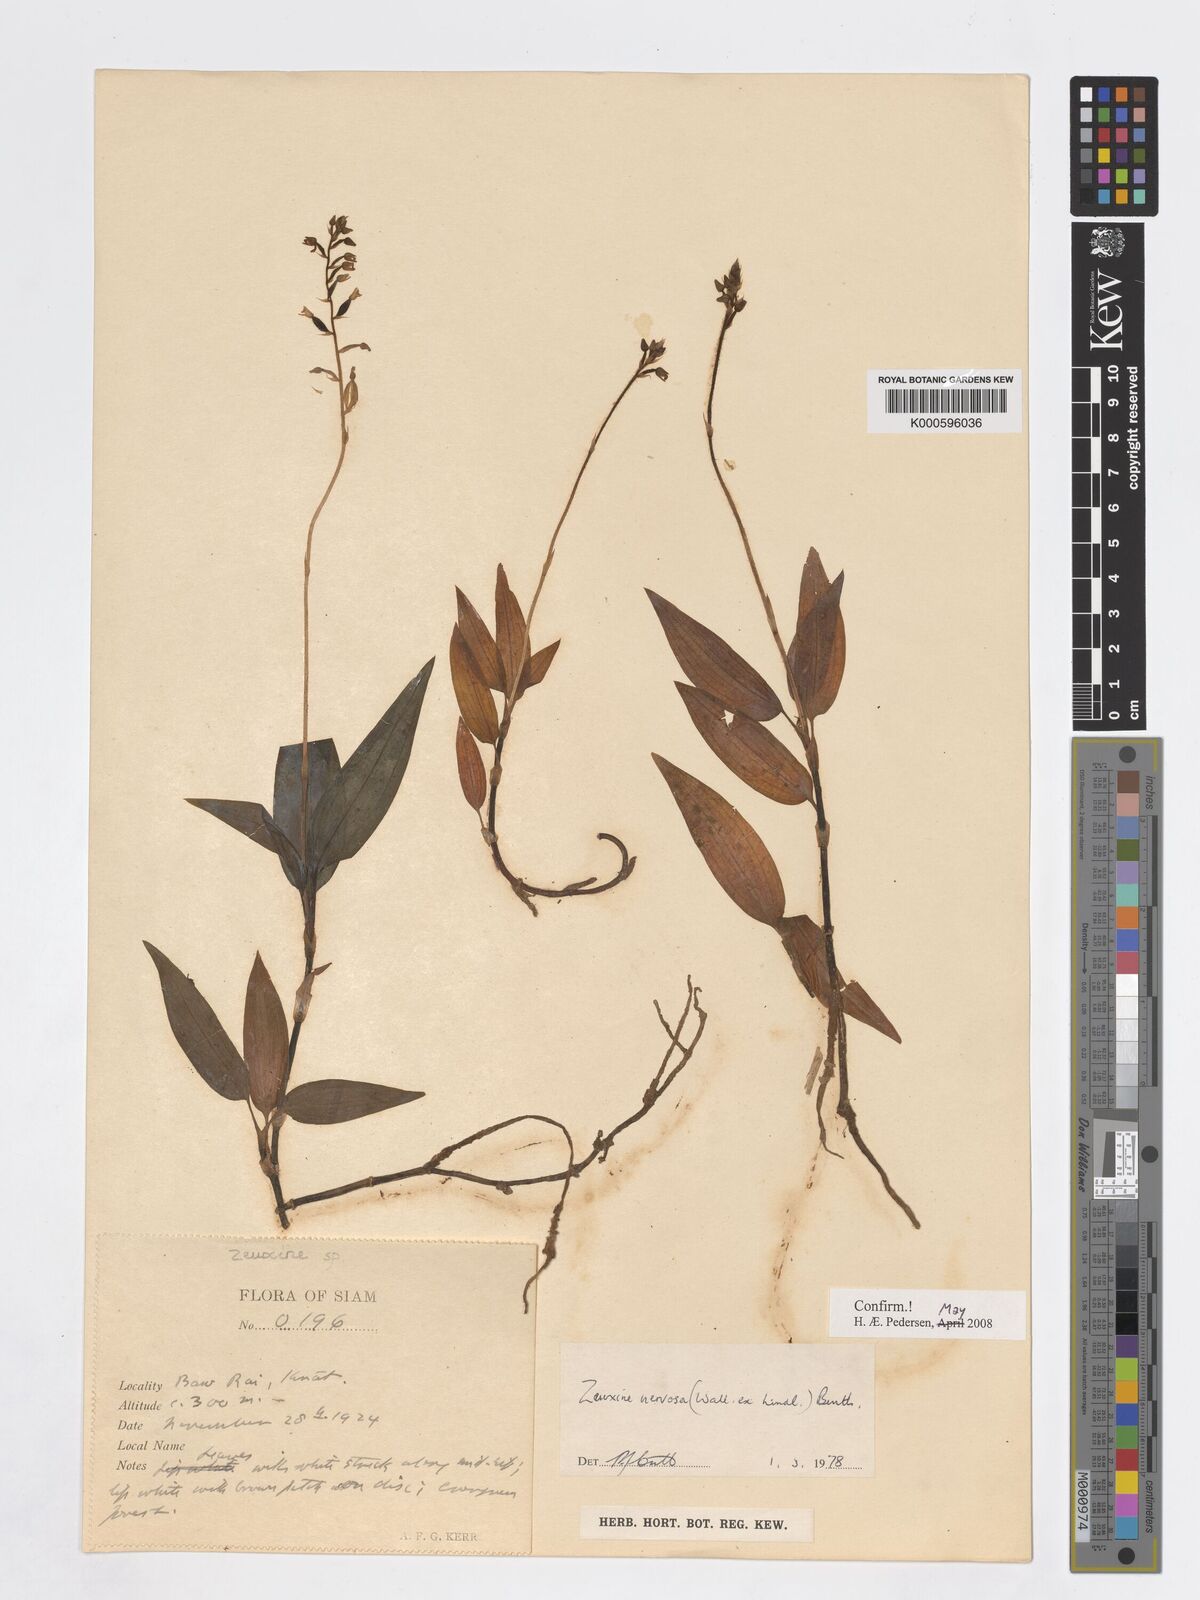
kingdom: Plantae
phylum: Tracheophyta
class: Liliopsida
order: Asparagales
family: Orchidaceae
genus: Zeuxine
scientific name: Zeuxine
